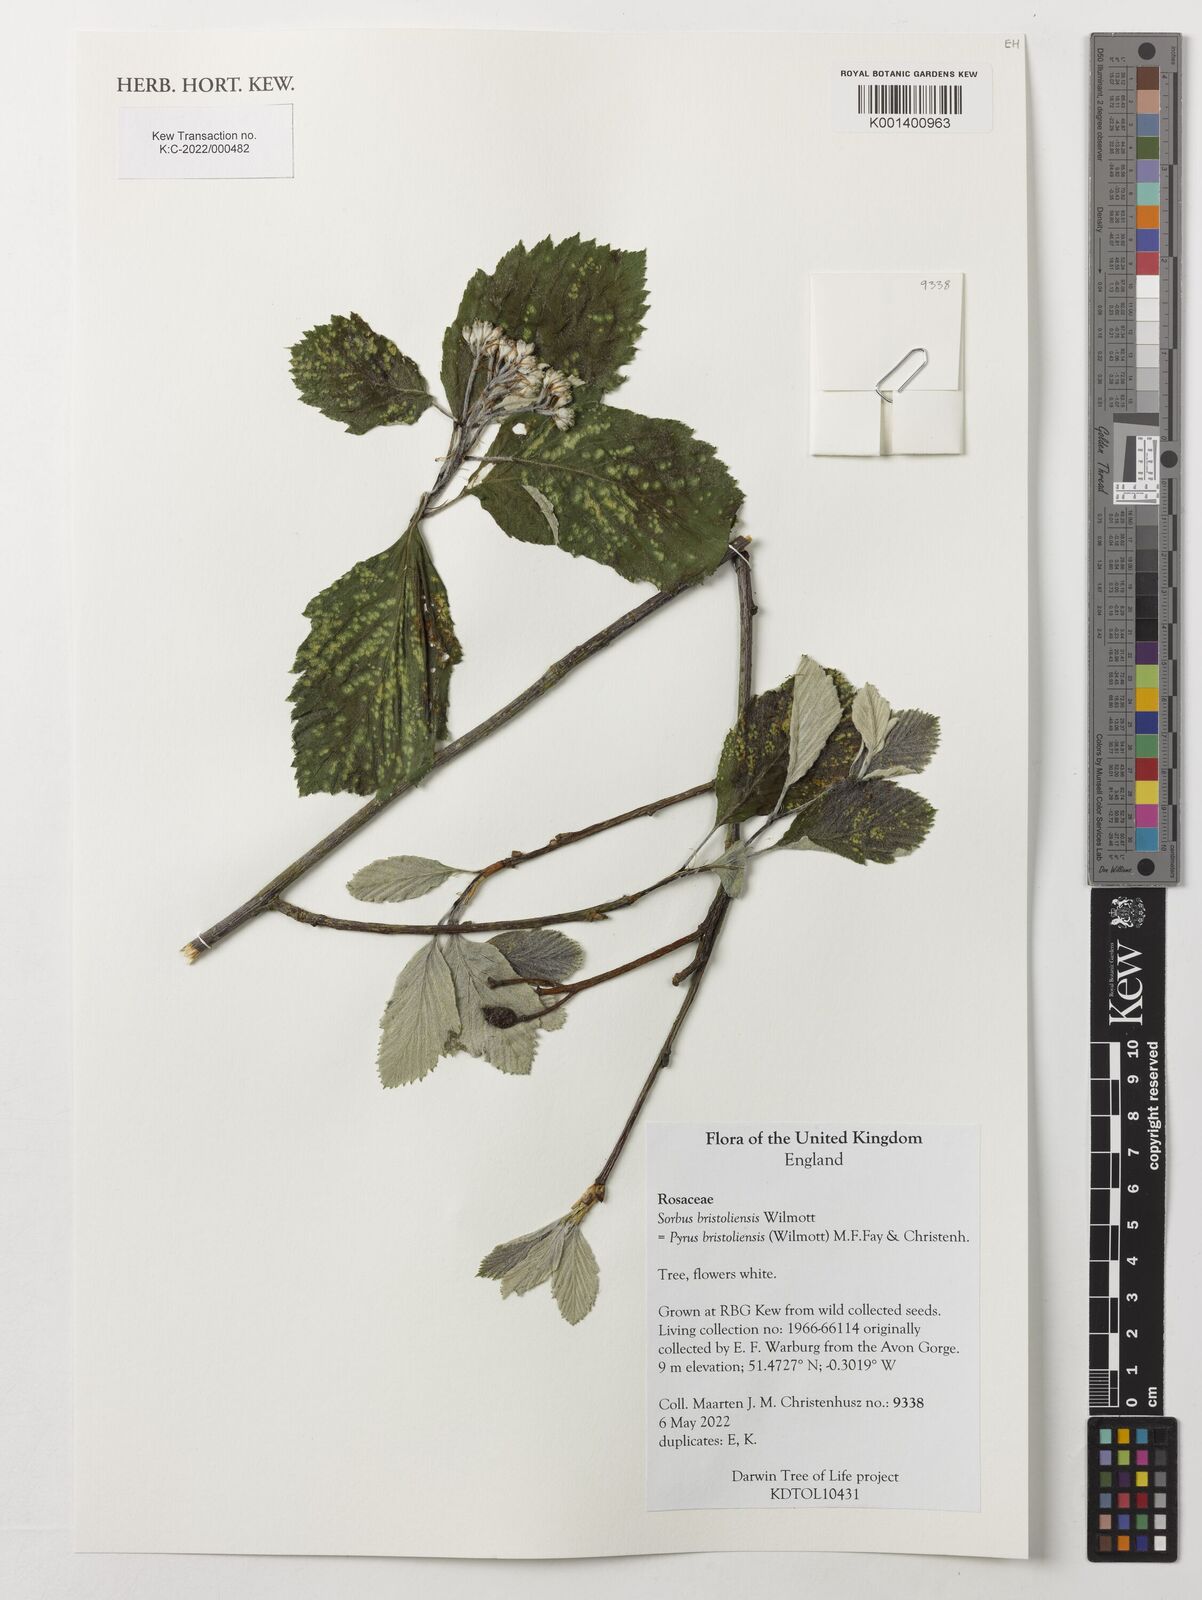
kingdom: Plantae
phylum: Tracheophyta
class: Magnoliopsida
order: Rosales
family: Rosaceae
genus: Karpatiosorbus
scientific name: Karpatiosorbus bristoliensis
